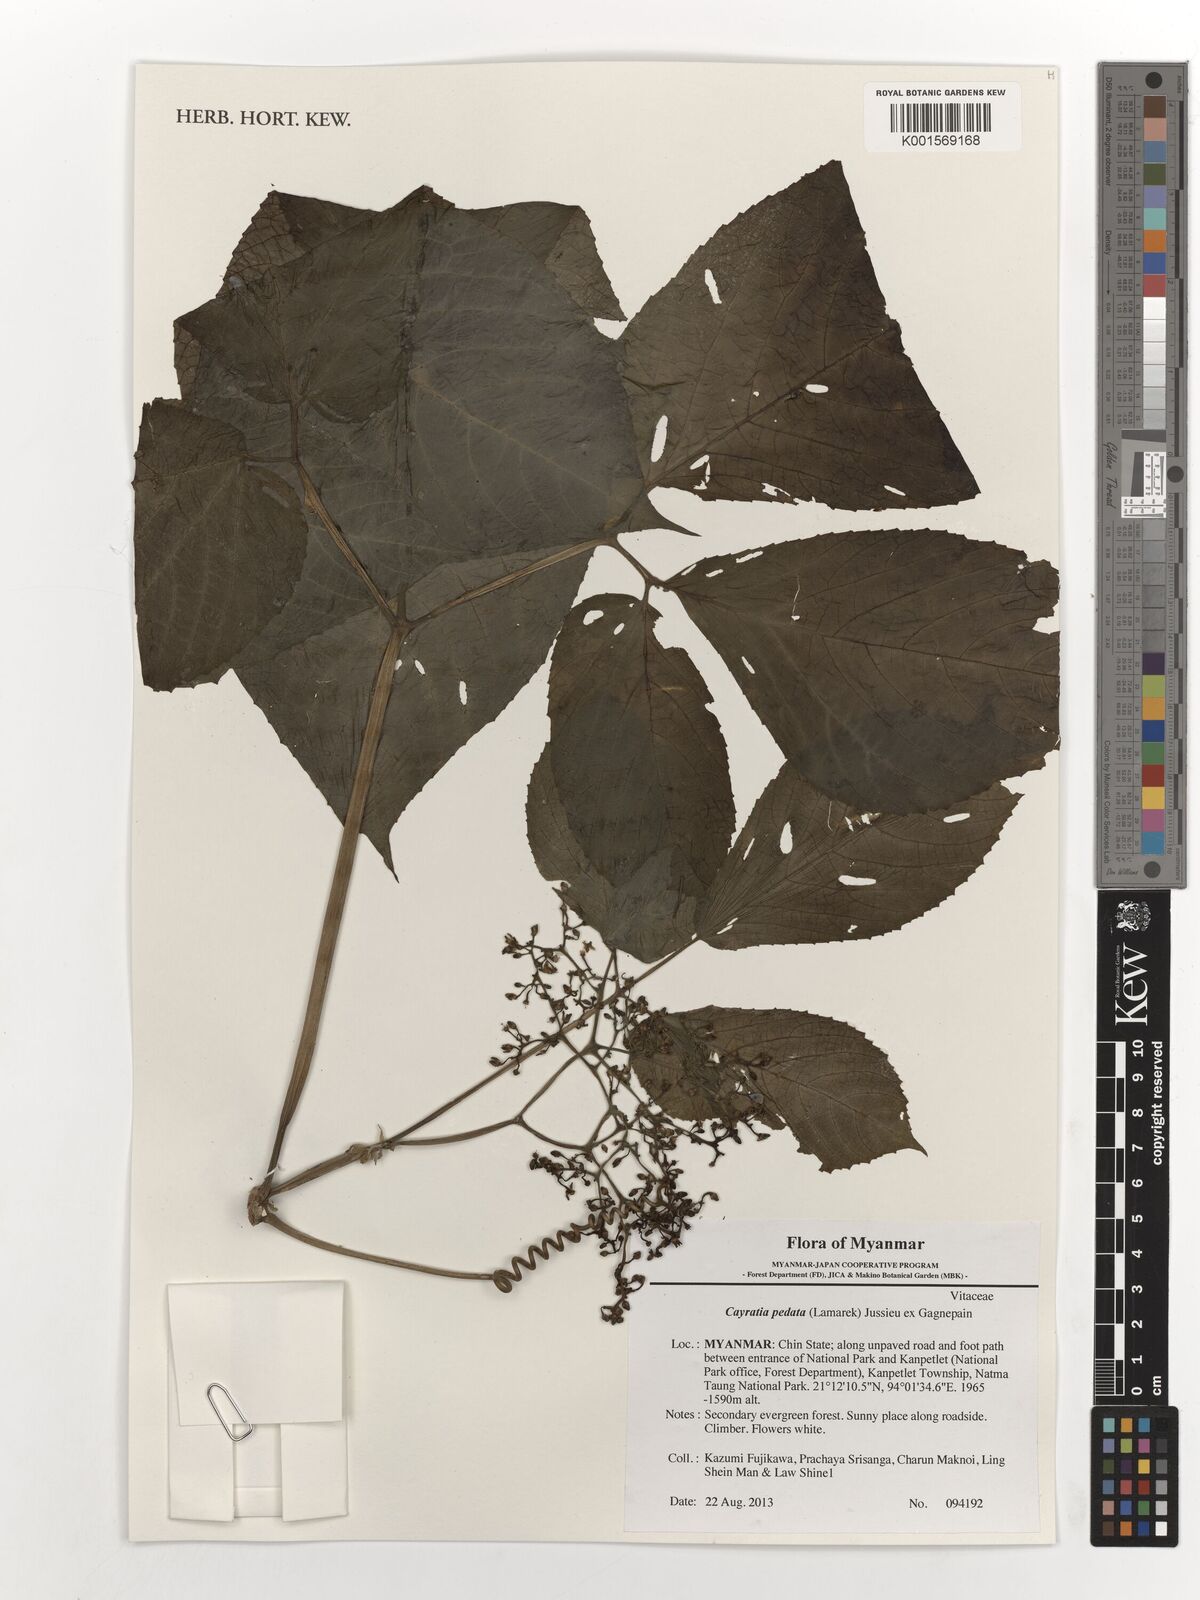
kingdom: Plantae
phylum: Tracheophyta
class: Magnoliopsida
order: Vitales
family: Vitaceae
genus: Cayratia
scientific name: Cayratia pedata
